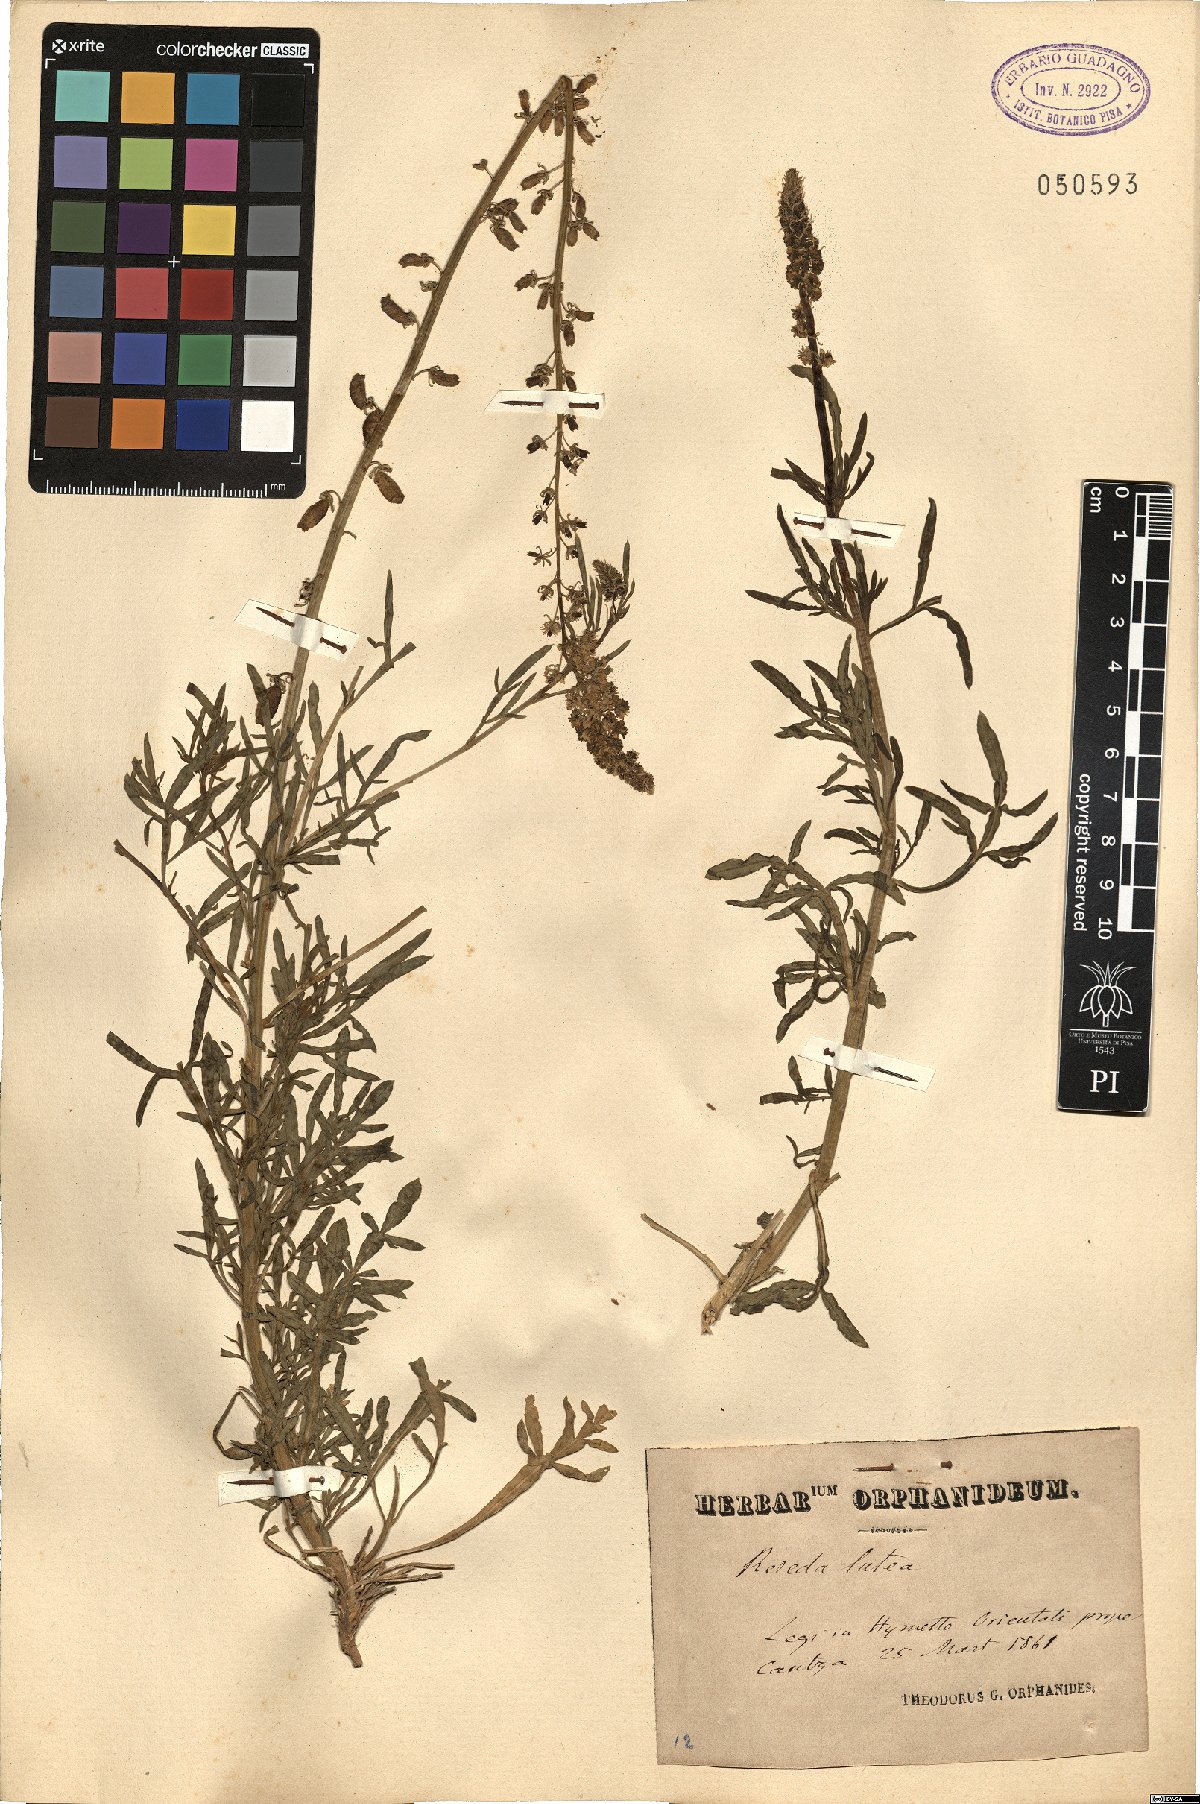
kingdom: Plantae
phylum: Tracheophyta
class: Magnoliopsida
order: Brassicales
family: Resedaceae
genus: Reseda
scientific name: Reseda lutea
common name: Wild mignonette
